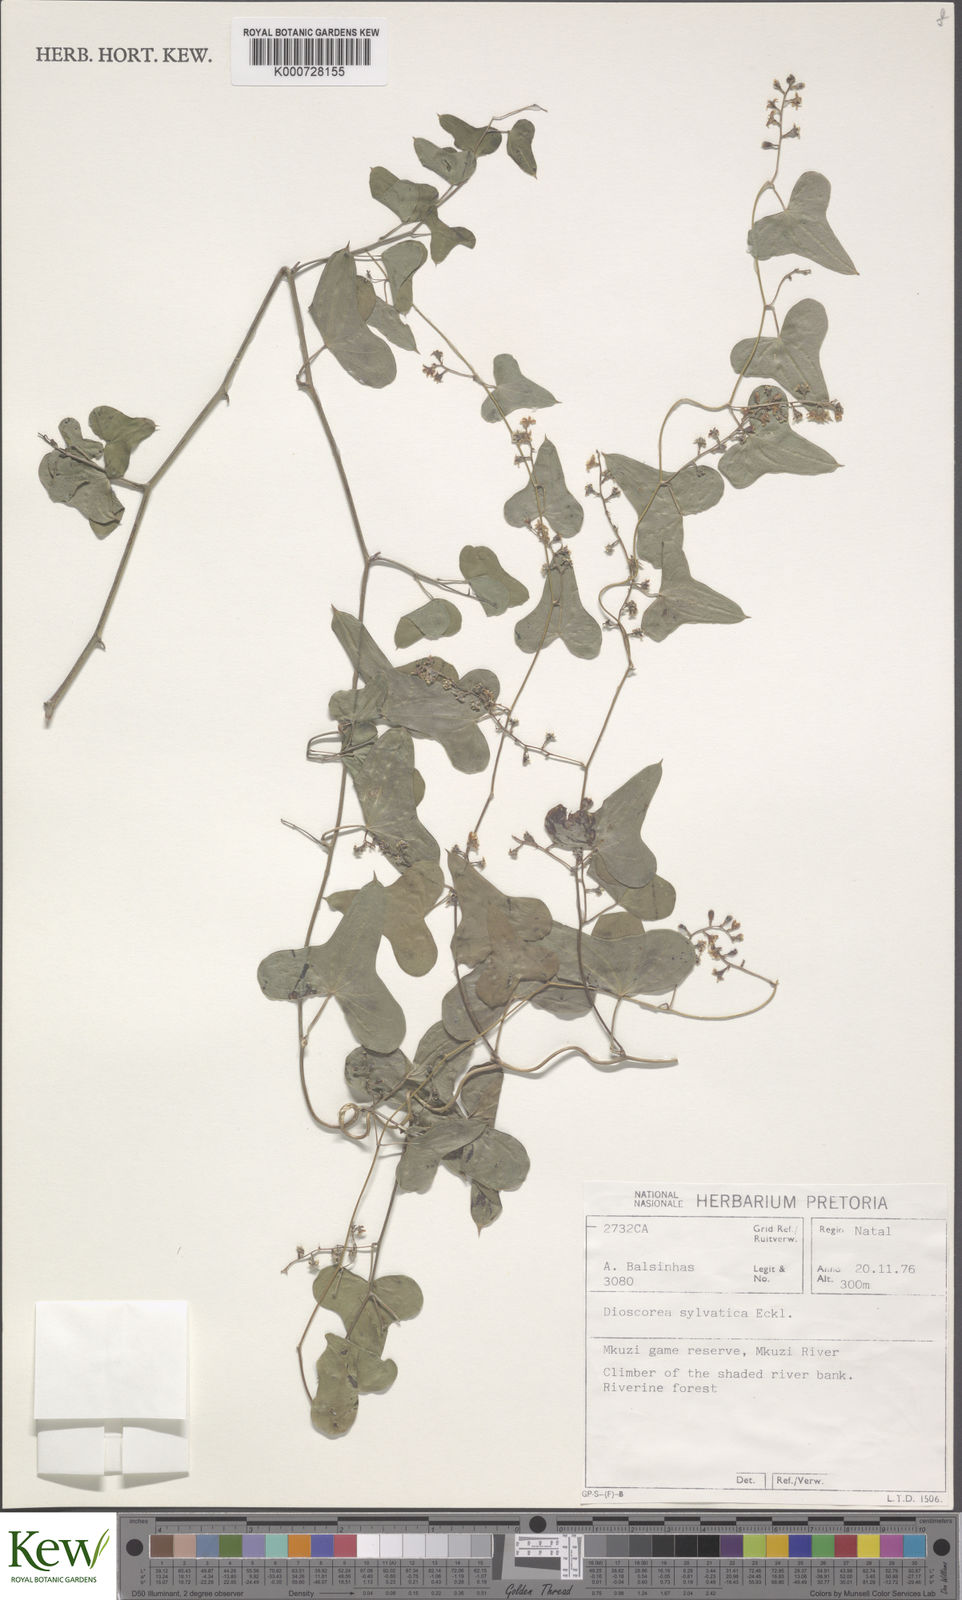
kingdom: Plantae
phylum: Tracheophyta
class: Liliopsida
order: Dioscoreales
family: Dioscoreaceae
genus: Dioscorea
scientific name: Dioscorea sylvatica
